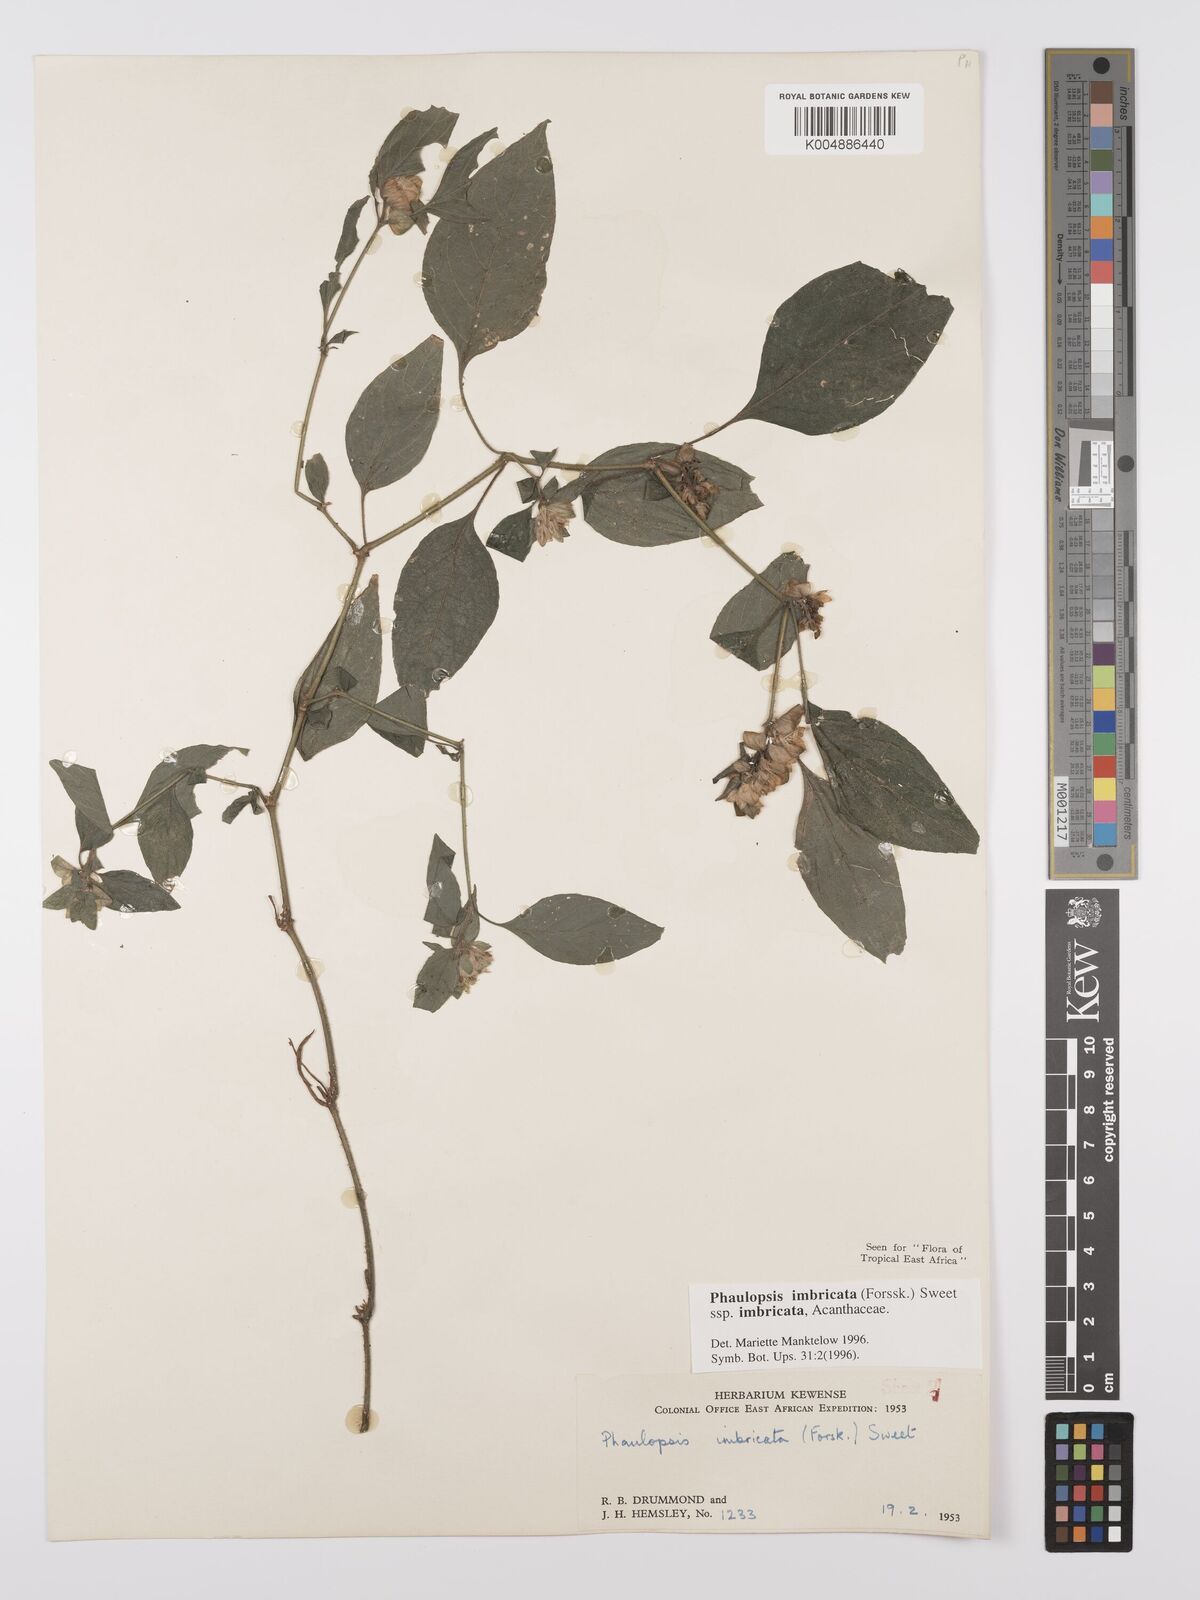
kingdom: Plantae
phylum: Tracheophyta
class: Magnoliopsida
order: Lamiales
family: Acanthaceae
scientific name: Acanthaceae
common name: Acanthaceae
